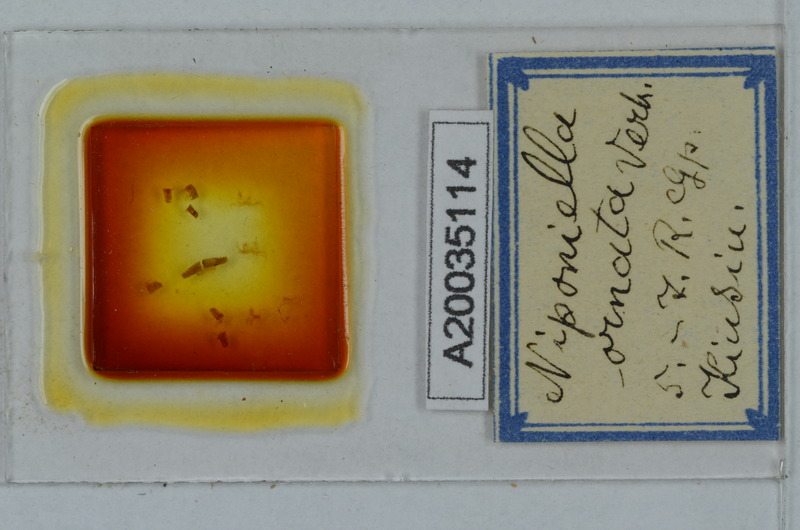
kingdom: Animalia
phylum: Arthropoda
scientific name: Arthropoda
